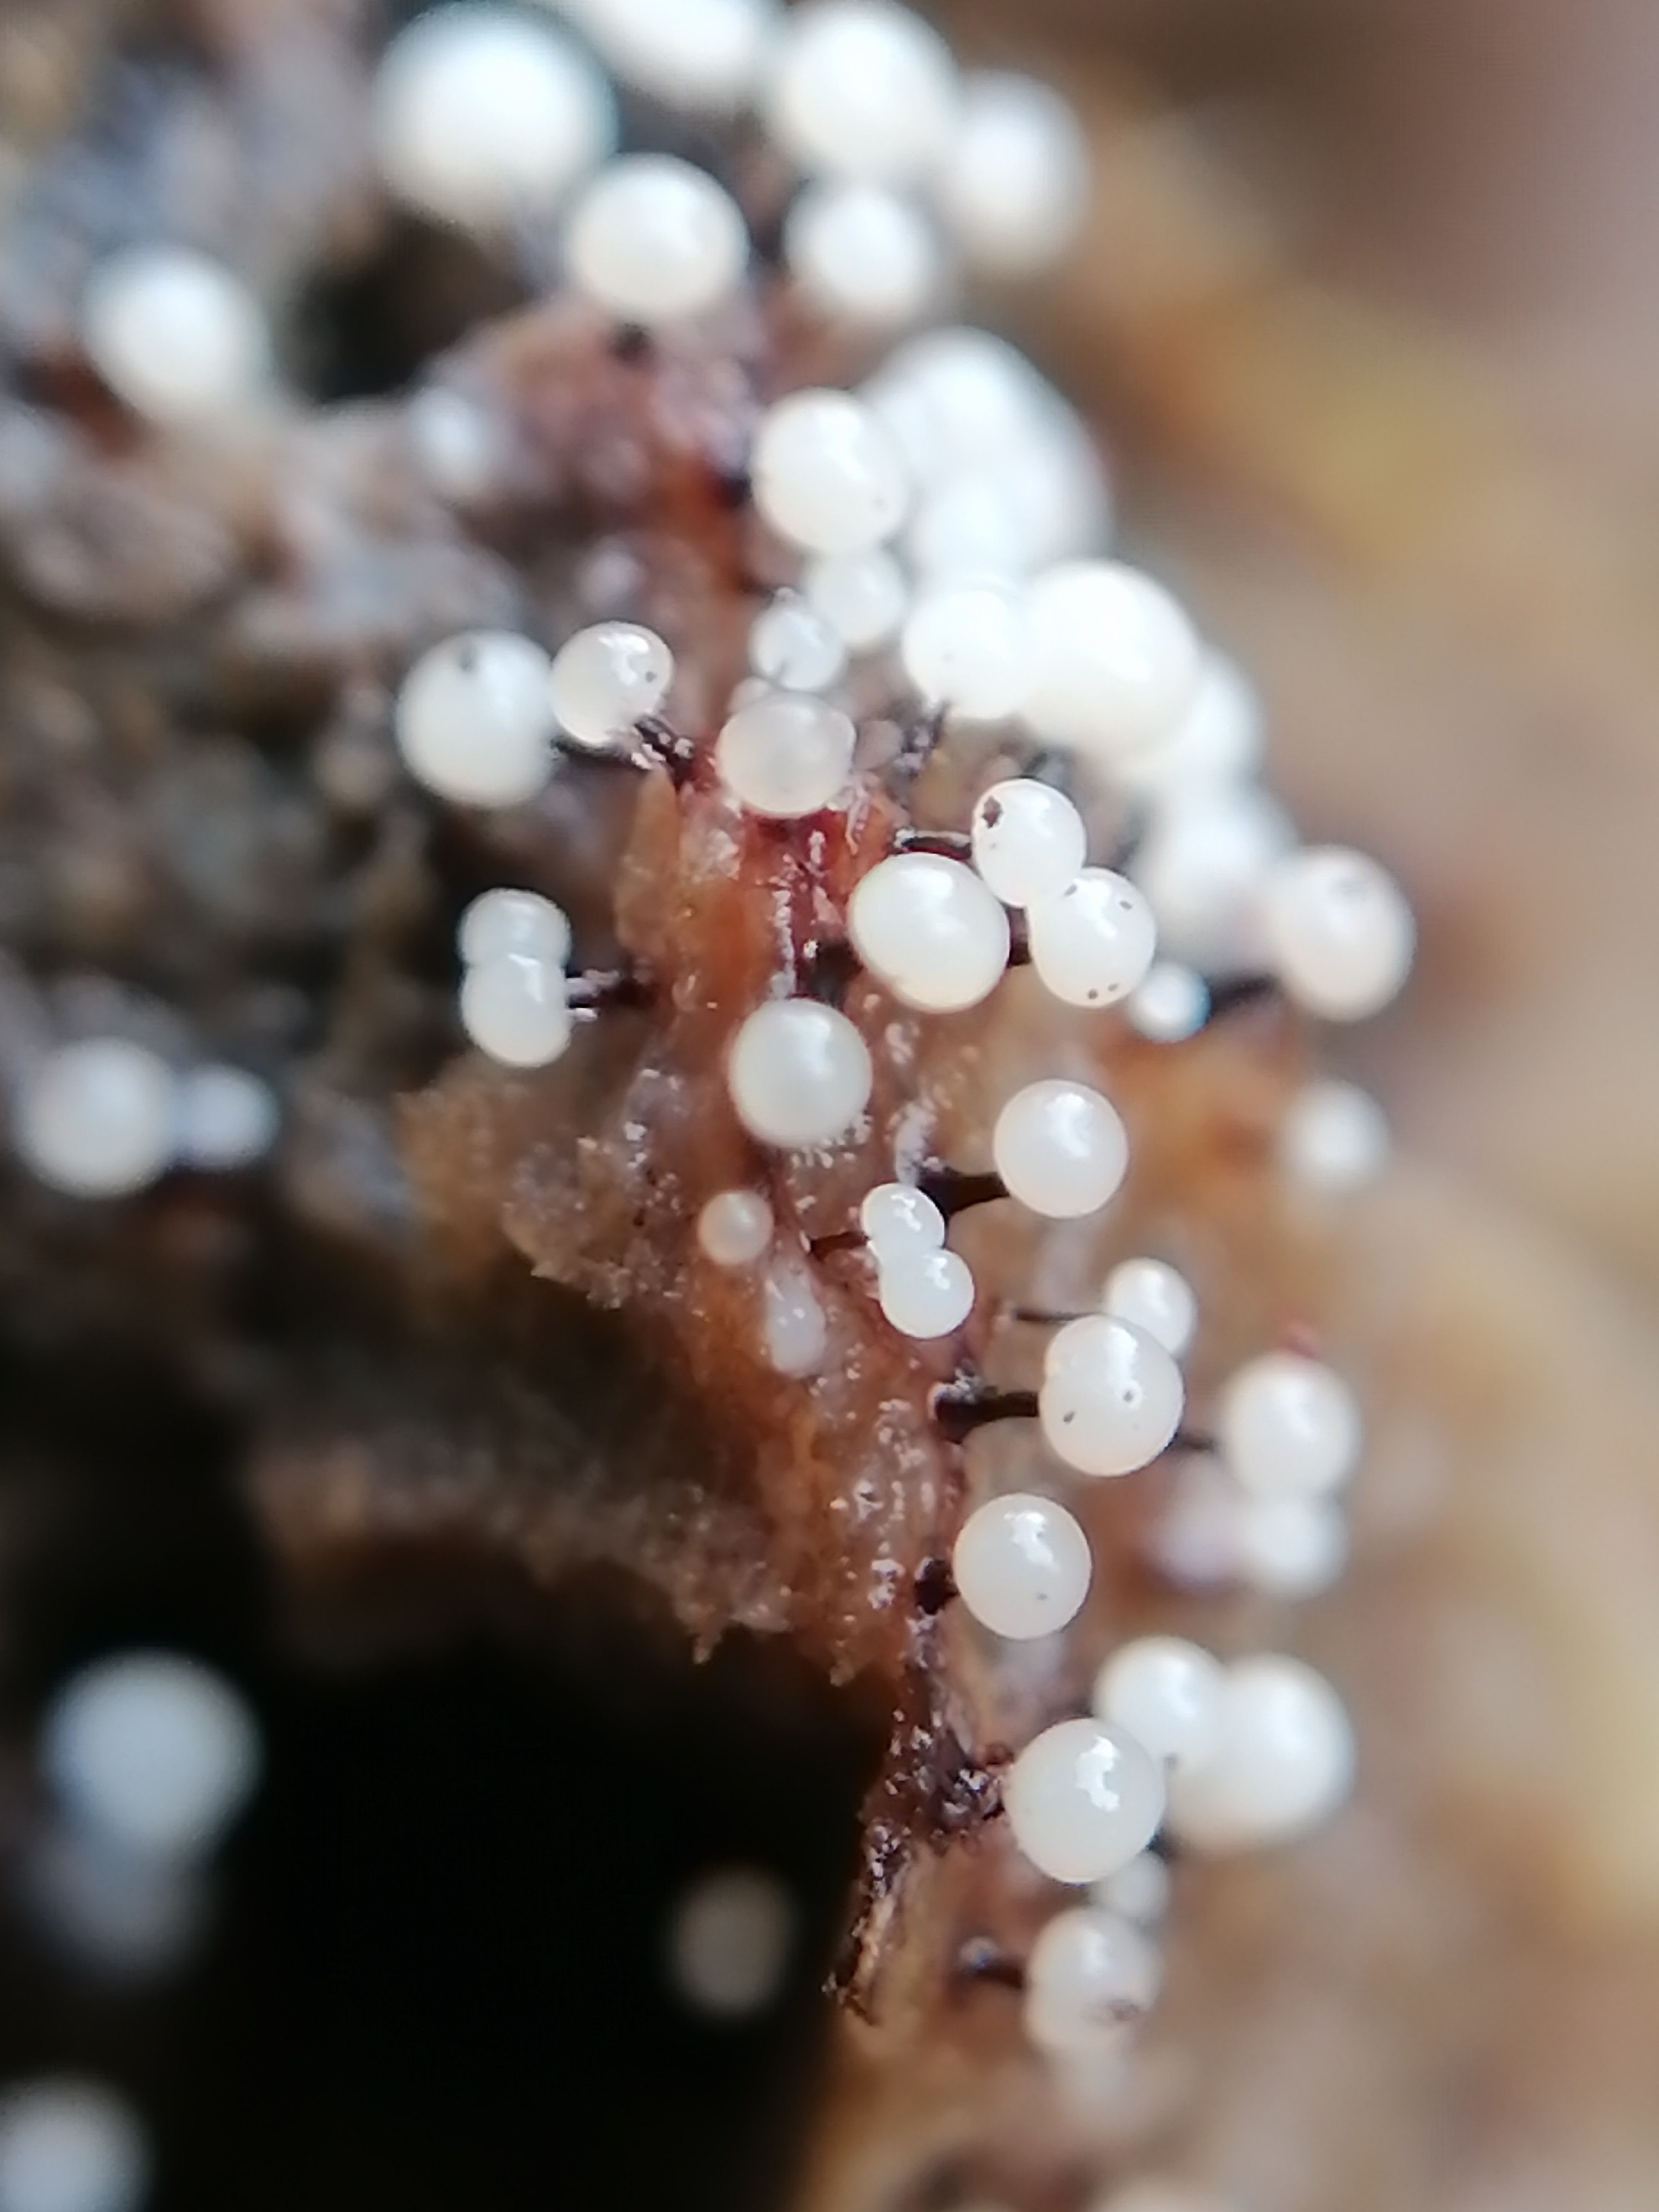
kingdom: Protozoa
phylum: Mycetozoa
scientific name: Mycetozoa
